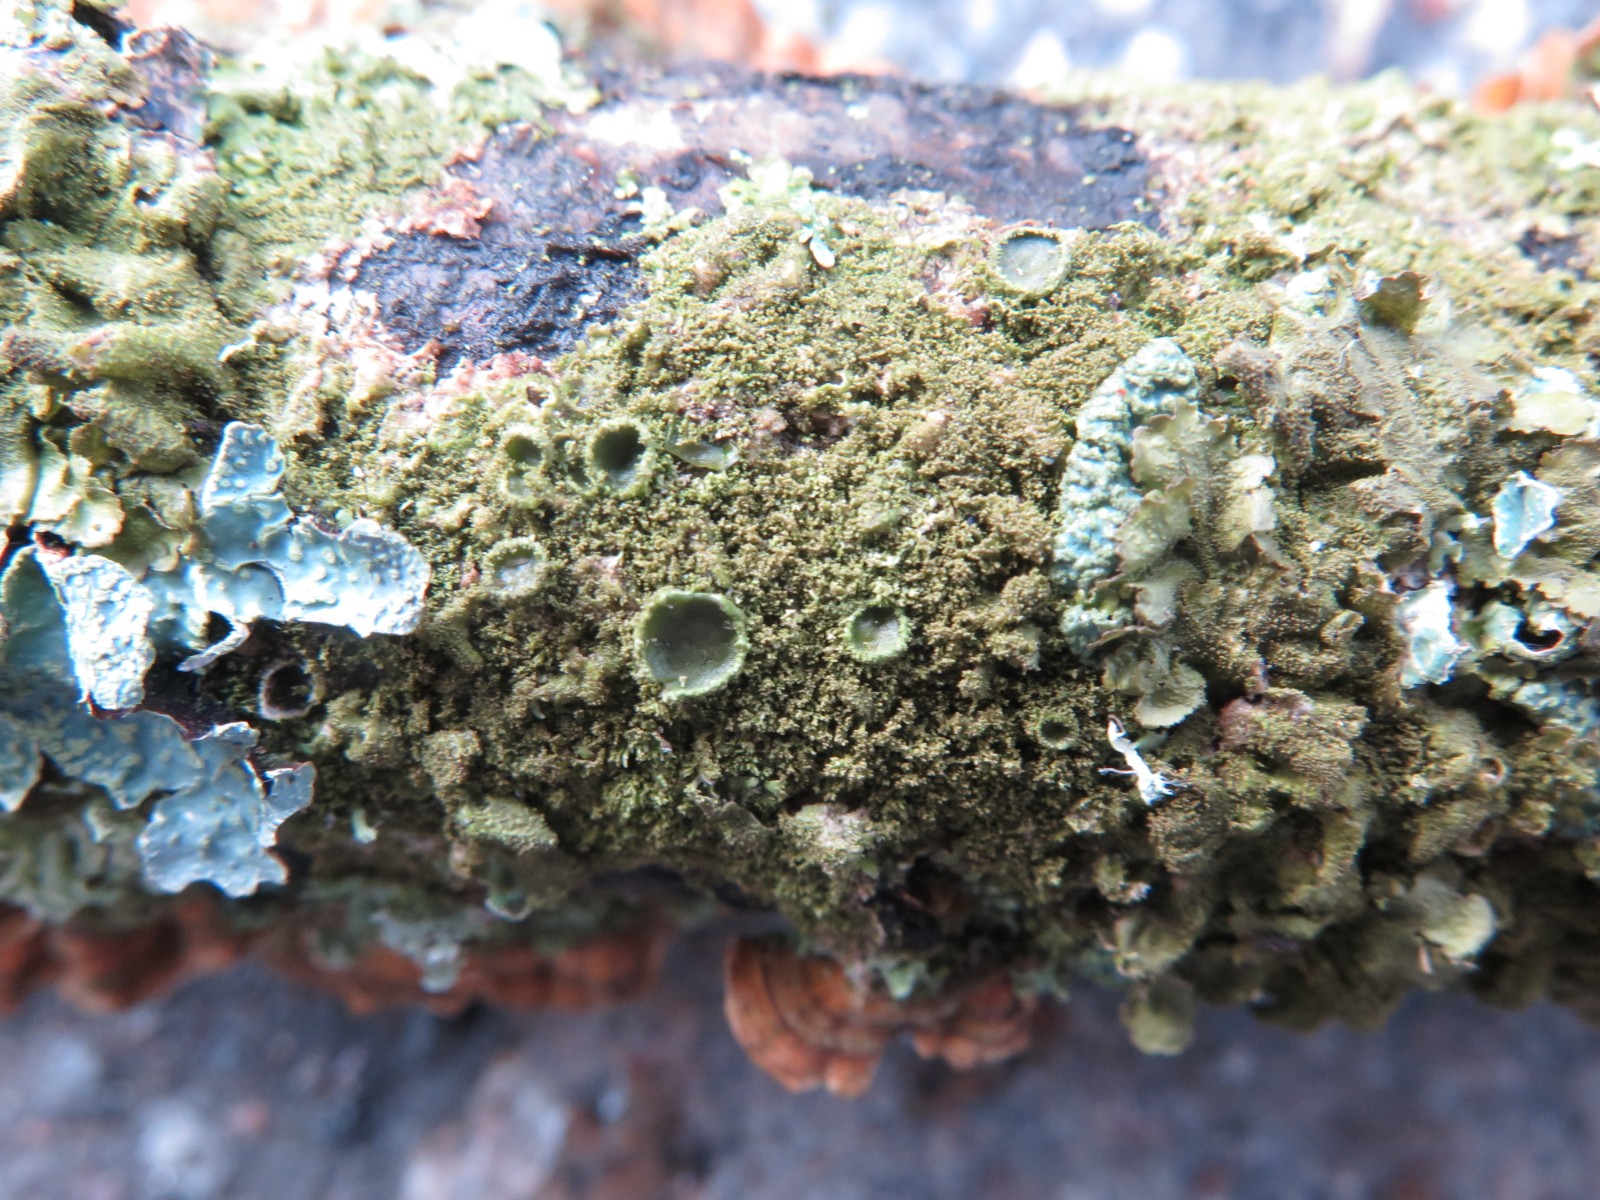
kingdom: Fungi
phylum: Ascomycota
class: Lecanoromycetes
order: Lecanorales
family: Parmeliaceae
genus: Melanohalea
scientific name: Melanohalea elegantula
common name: elegant skållav
